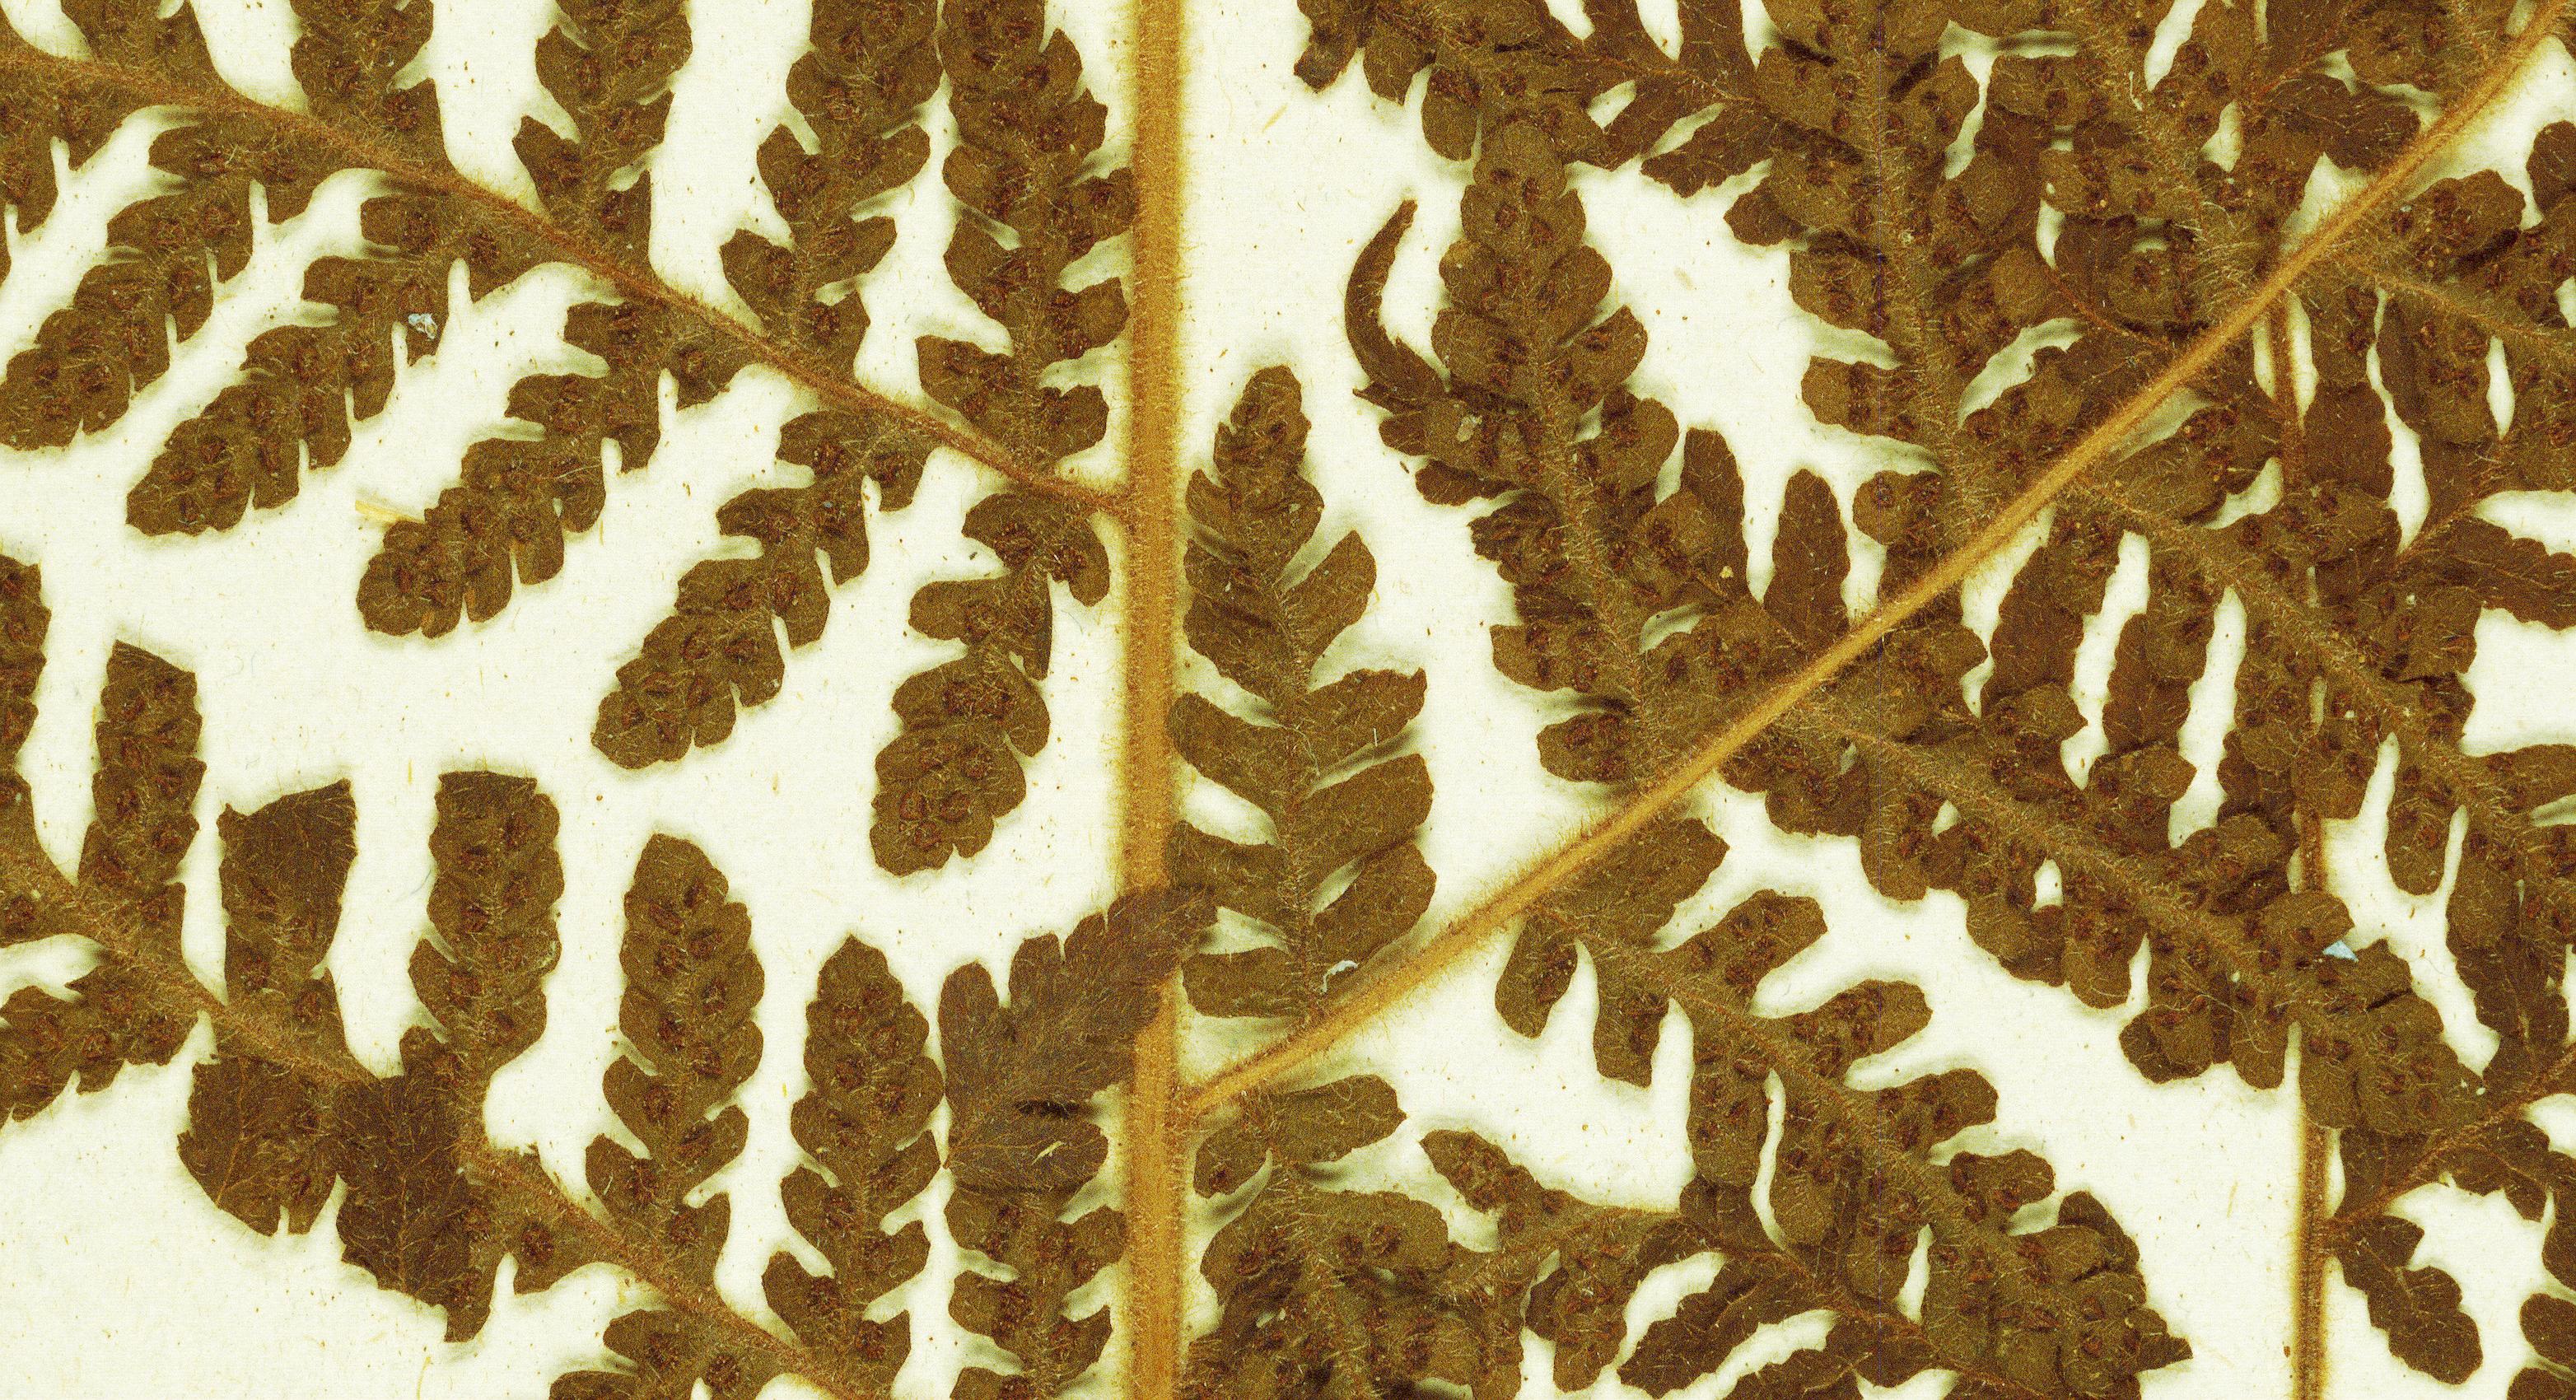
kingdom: Plantae
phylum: Tracheophyta
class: Polypodiopsida
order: Polypodiales
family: Dryopteridaceae
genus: Megalastrum
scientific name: Megalastrum lanuginosum
